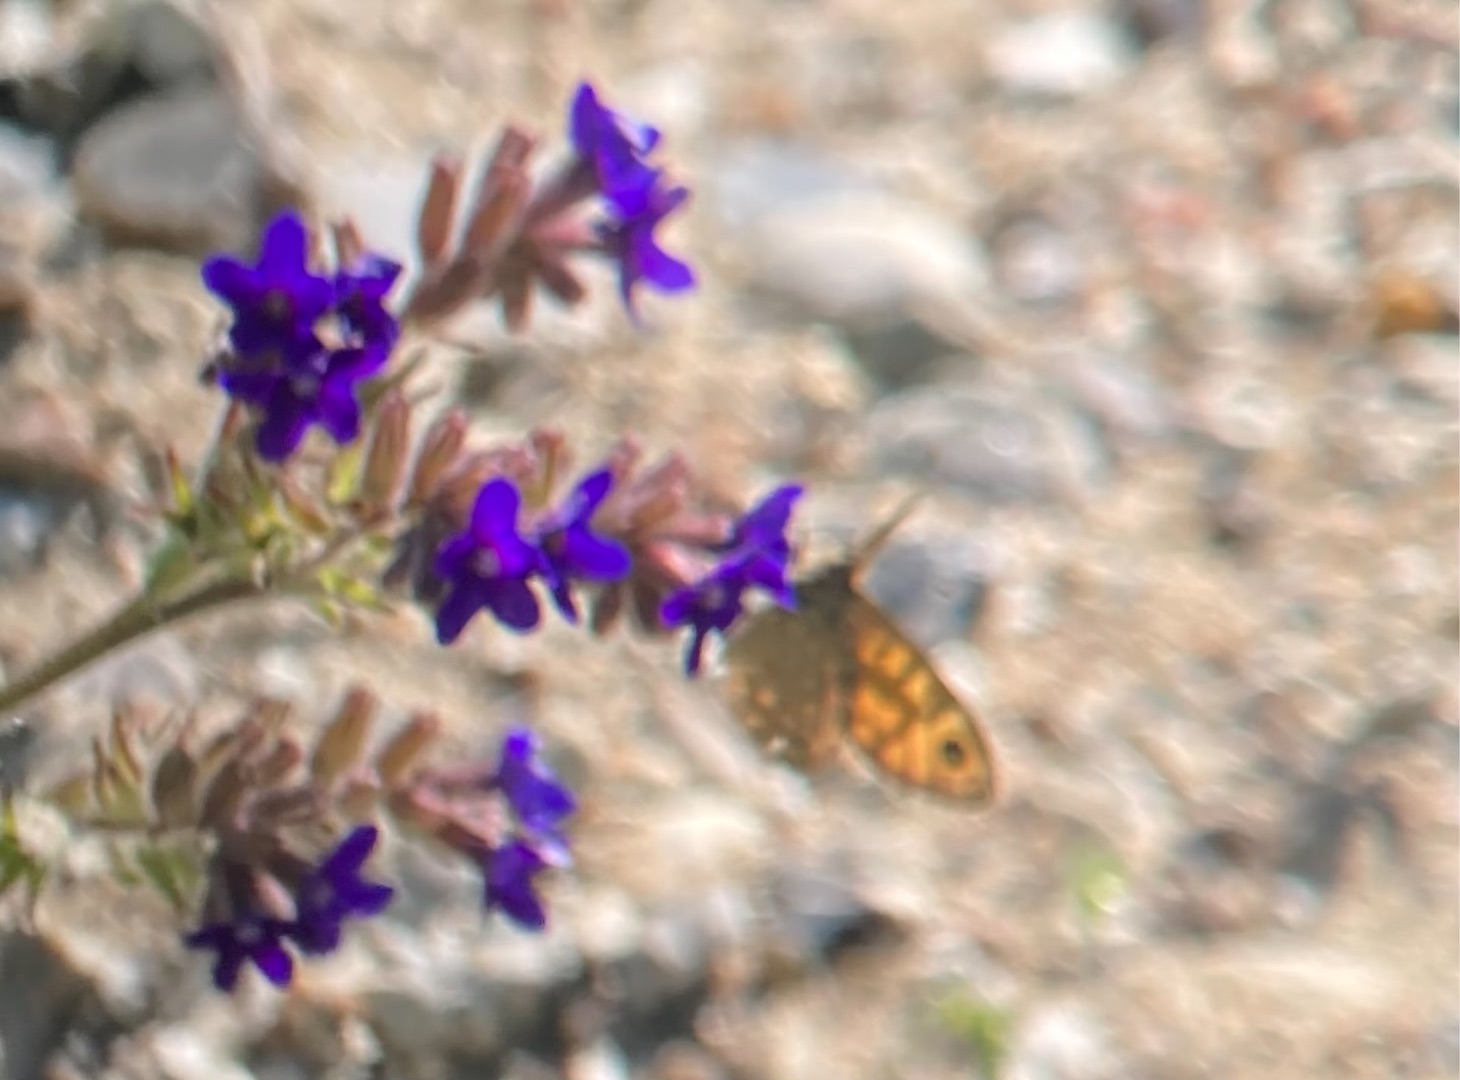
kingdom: Animalia
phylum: Arthropoda
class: Insecta
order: Lepidoptera
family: Nymphalidae
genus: Pararge
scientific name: Pararge Lasiommata megera
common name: Vejrandøje
